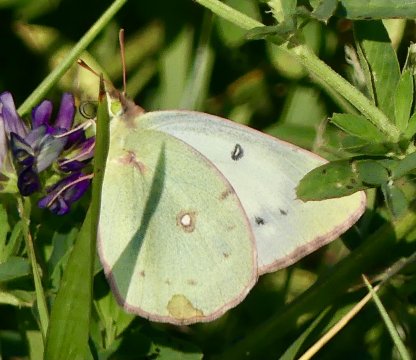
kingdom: Animalia
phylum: Arthropoda
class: Insecta
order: Lepidoptera
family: Pieridae
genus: Colias
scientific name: Colias philodice
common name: Clouded Sulphur
